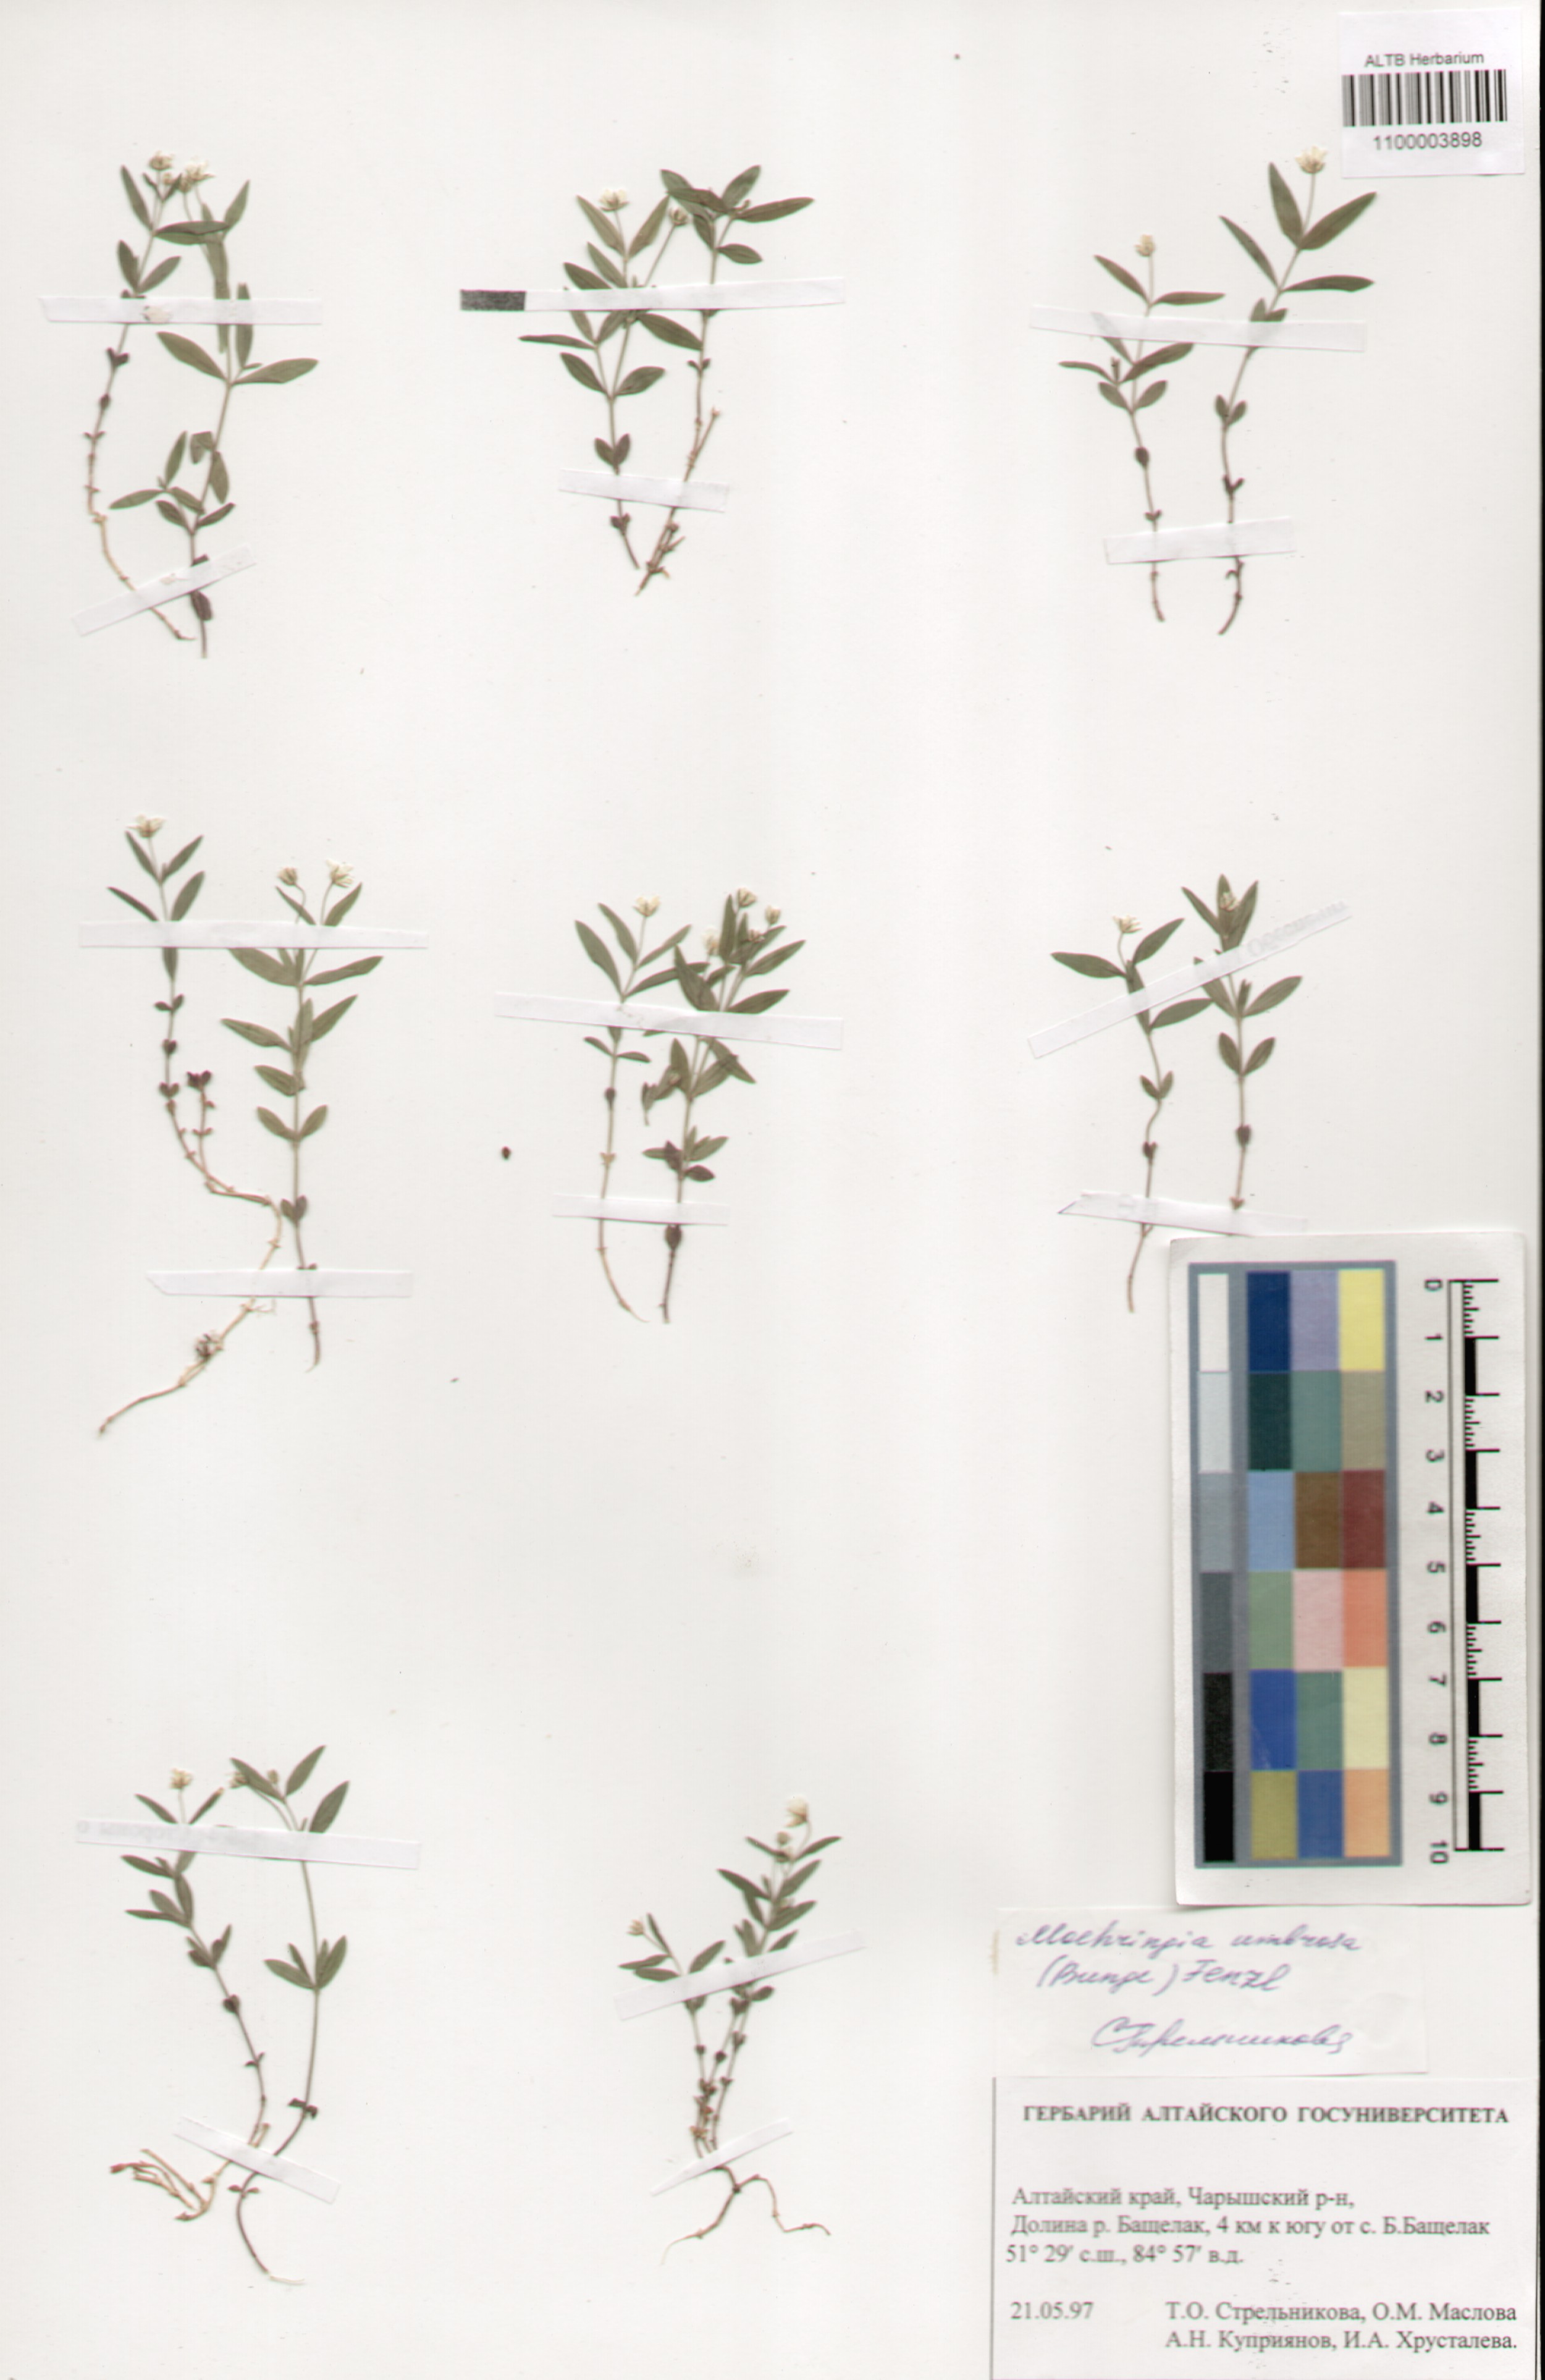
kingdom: Plantae
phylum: Tracheophyta
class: Magnoliopsida
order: Caryophyllales
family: Caryophyllaceae
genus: Moehringia
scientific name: Moehringia umbrosa
